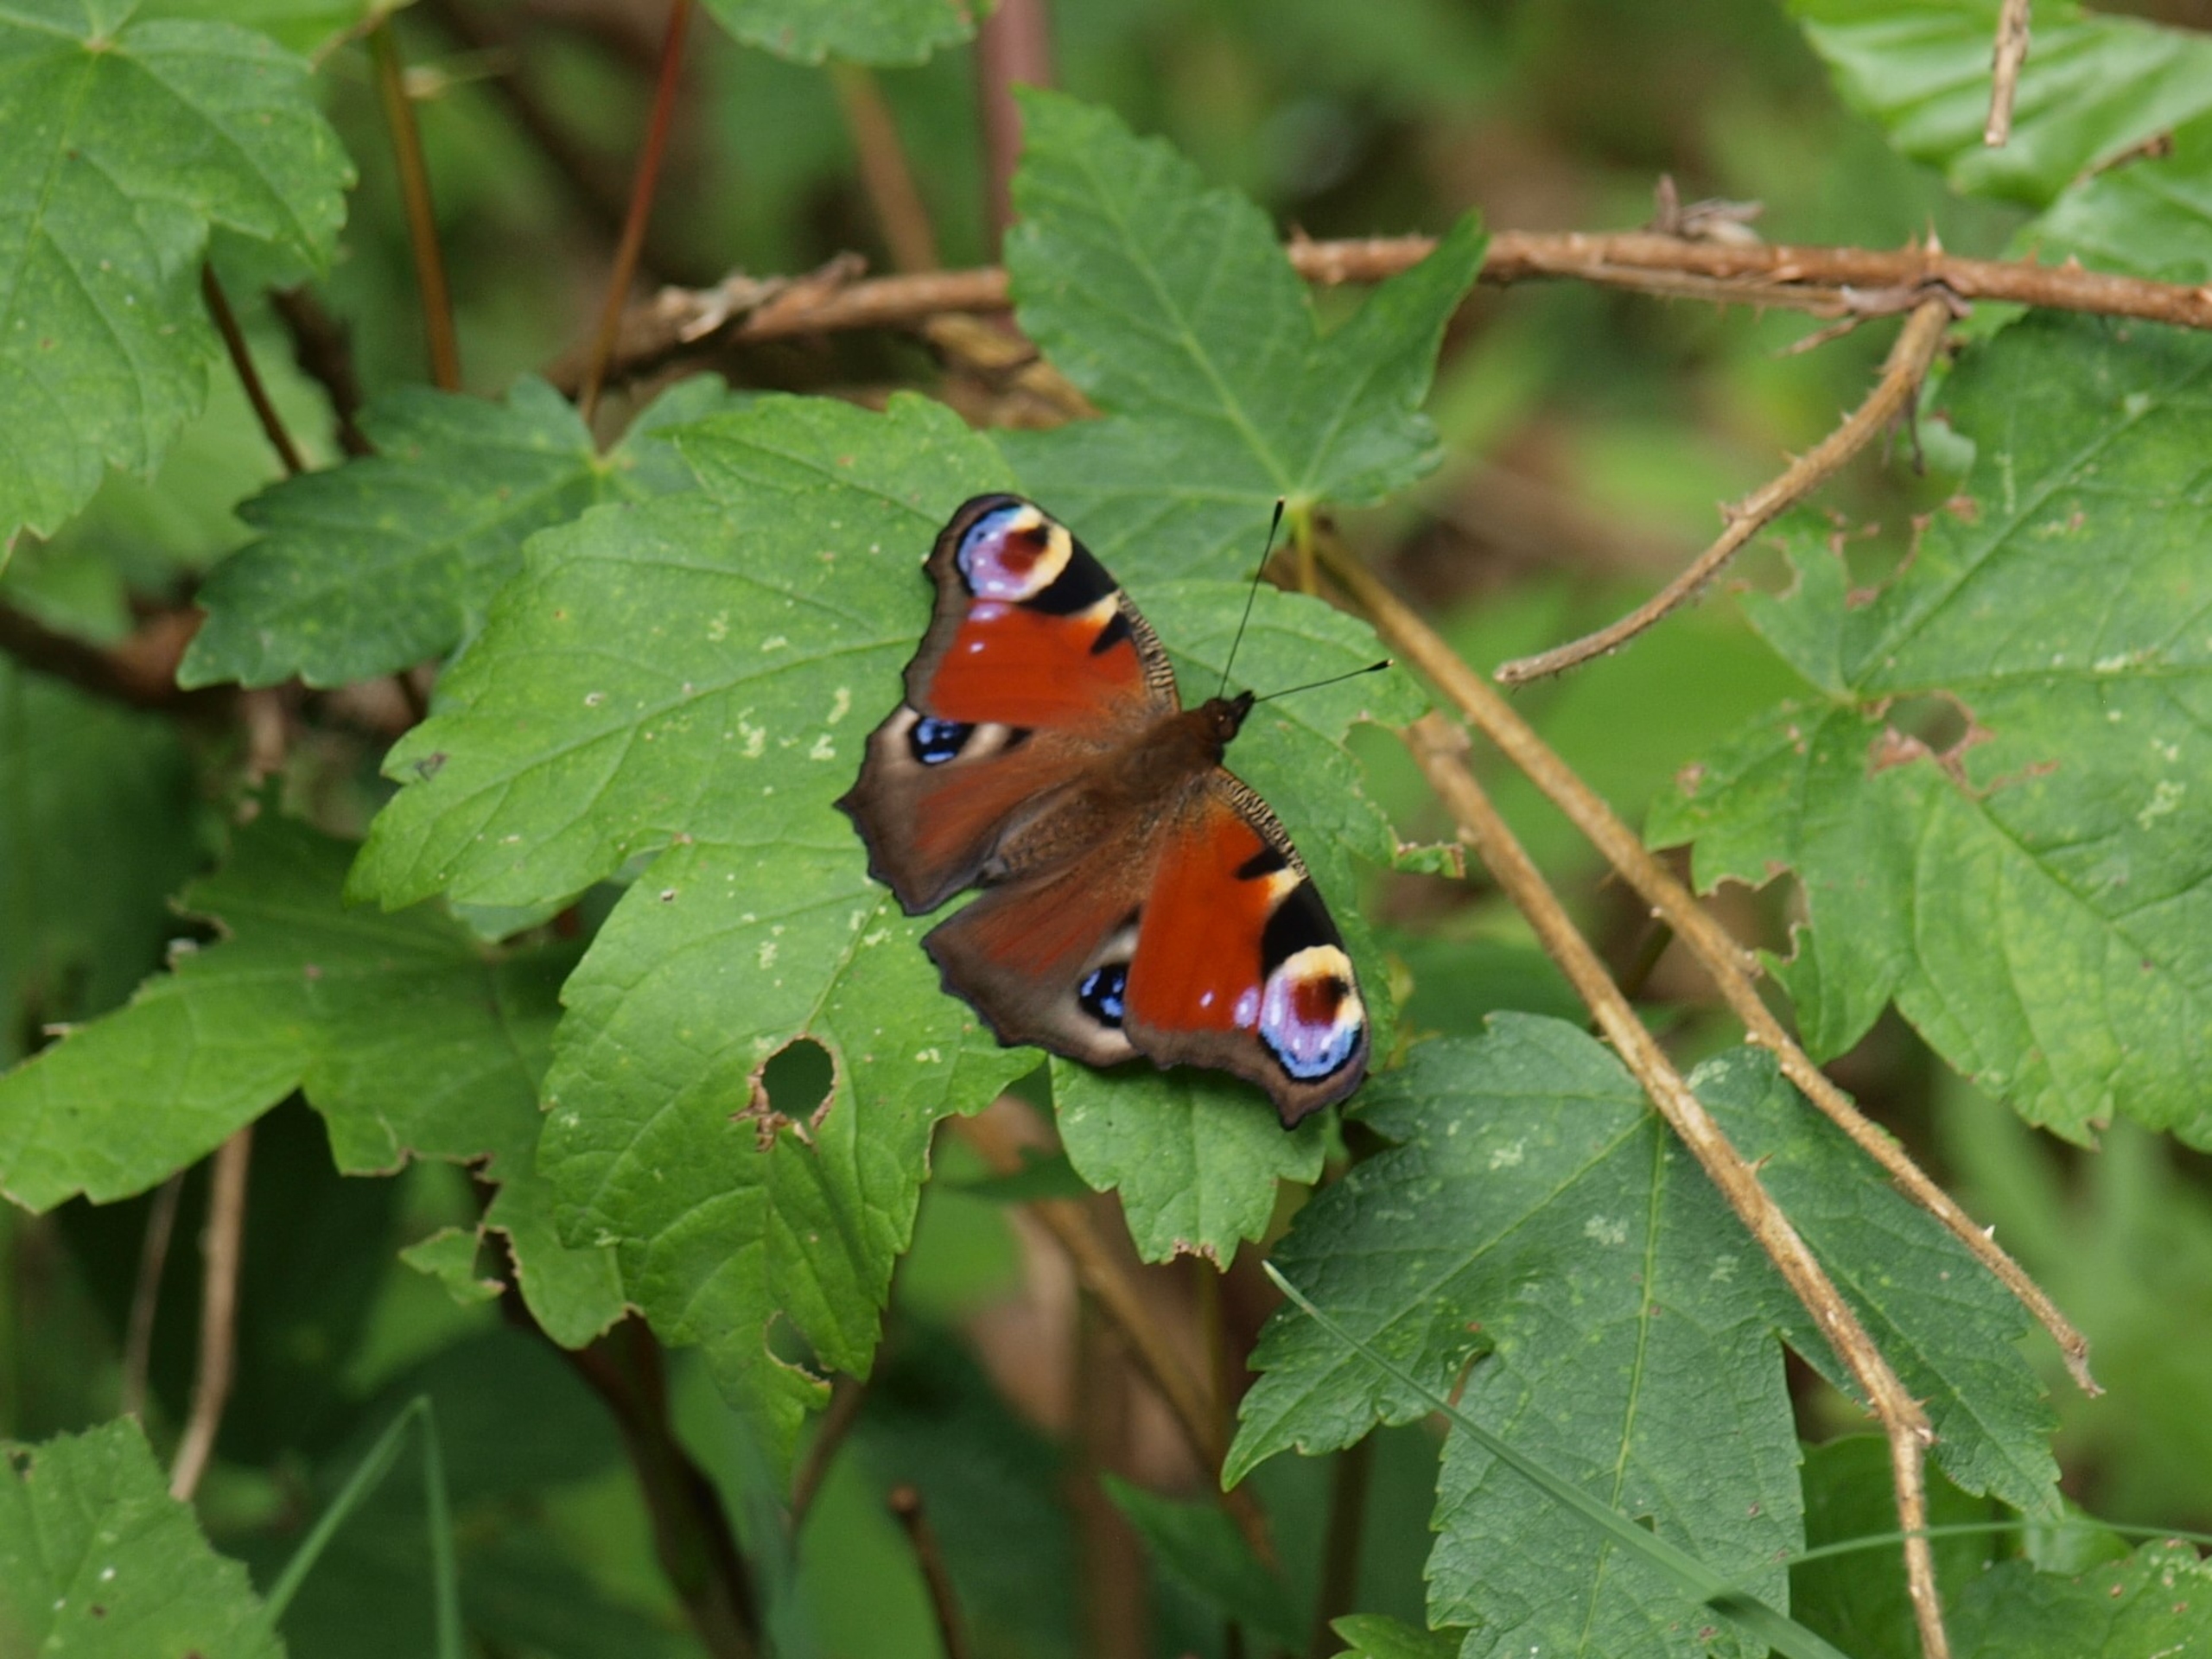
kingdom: Animalia
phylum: Arthropoda
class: Insecta
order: Lepidoptera
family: Nymphalidae
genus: Aglais
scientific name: Aglais io
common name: Dagpåfugleøje
